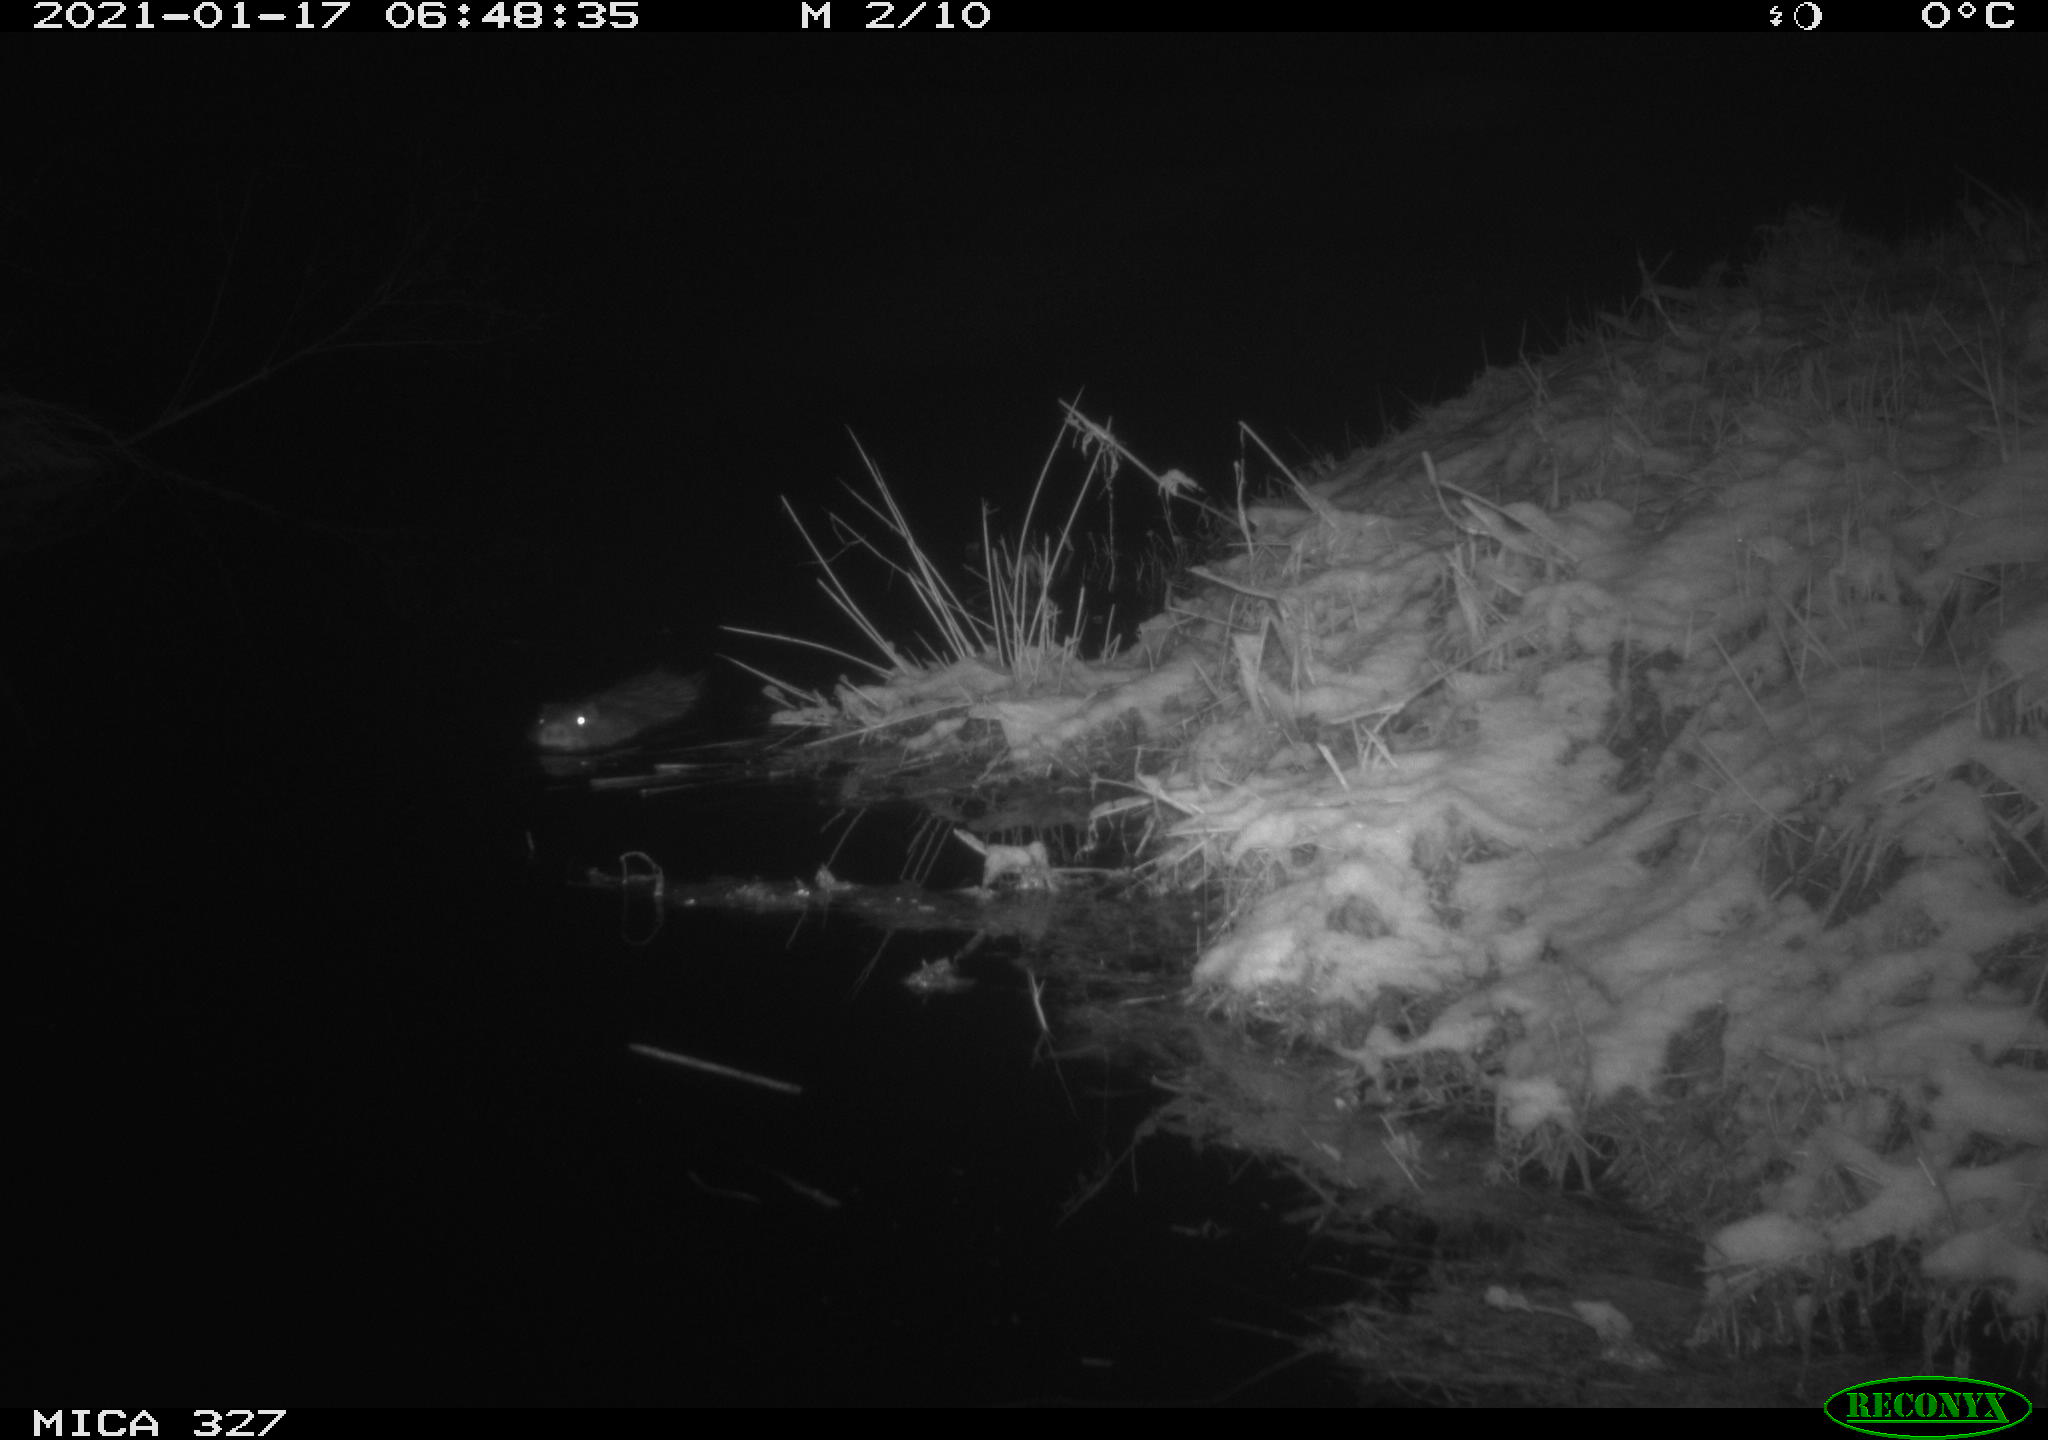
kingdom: Animalia
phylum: Chordata
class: Mammalia
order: Rodentia
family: Myocastoridae
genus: Myocastor
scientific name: Myocastor coypus
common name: Coypu
